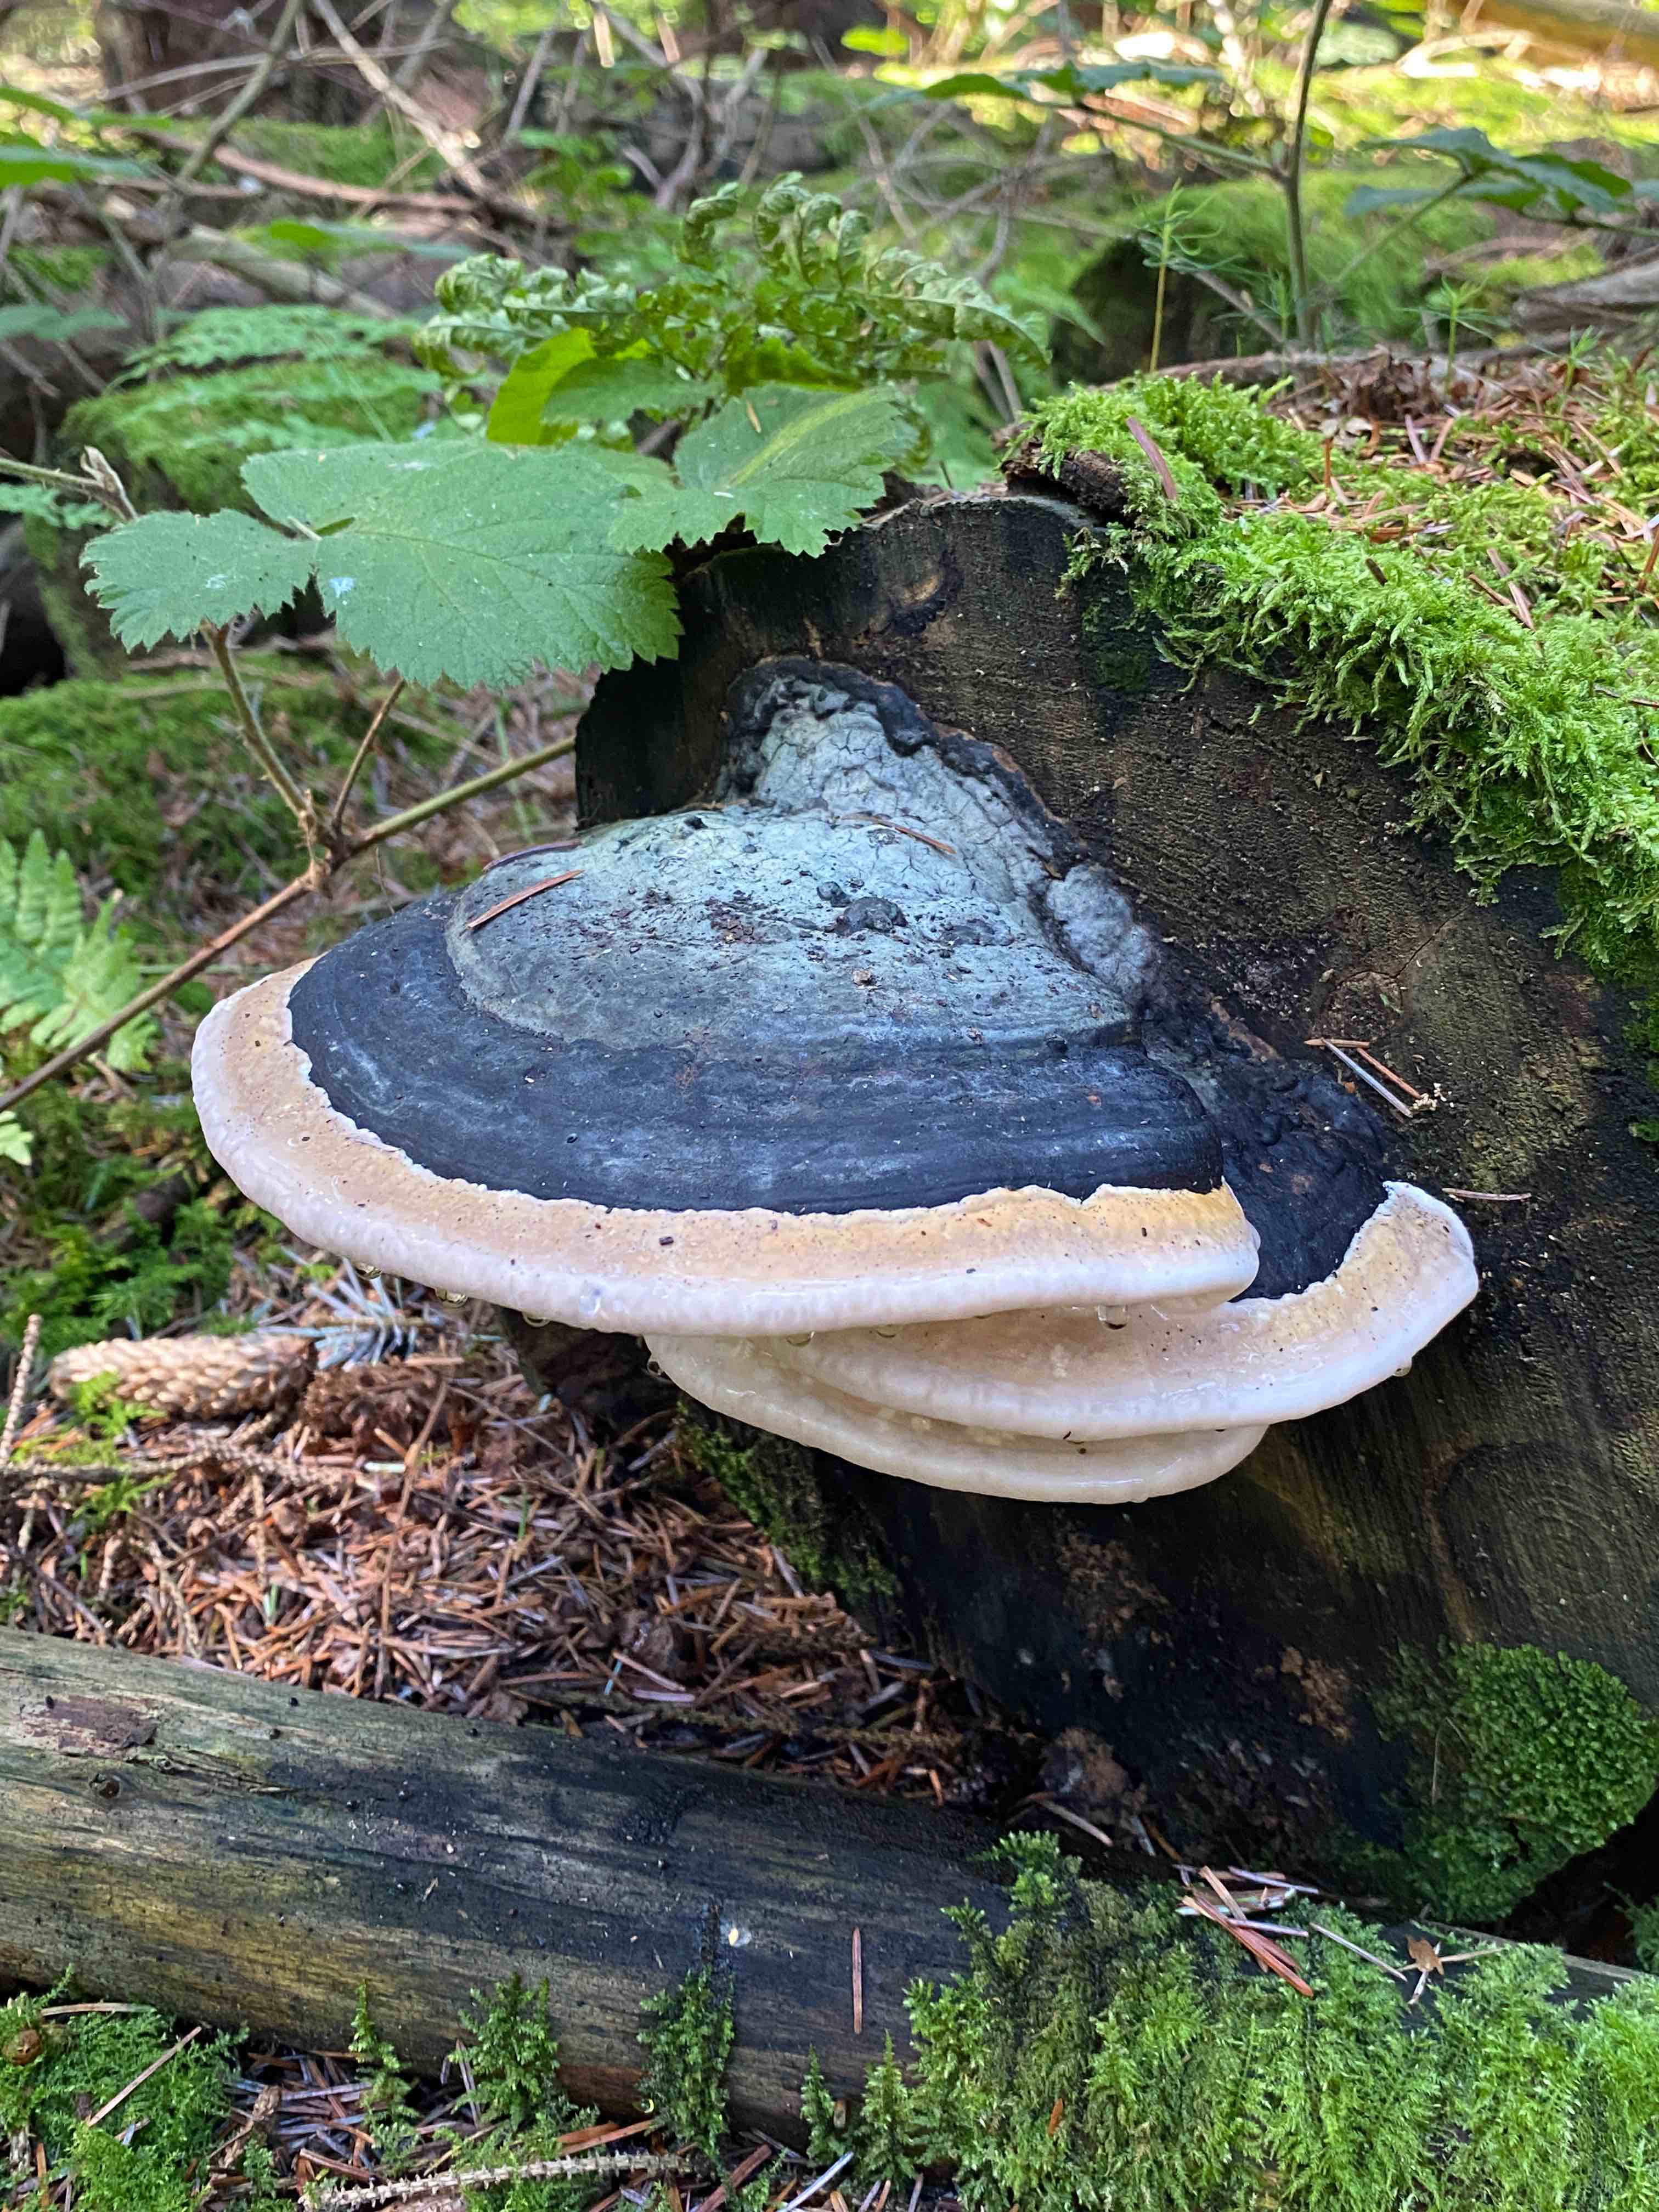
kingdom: Fungi
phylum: Basidiomycota
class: Agaricomycetes
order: Polyporales
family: Fomitopsidaceae
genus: Fomitopsis
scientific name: Fomitopsis pinicola
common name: randbæltet hovporesvamp
